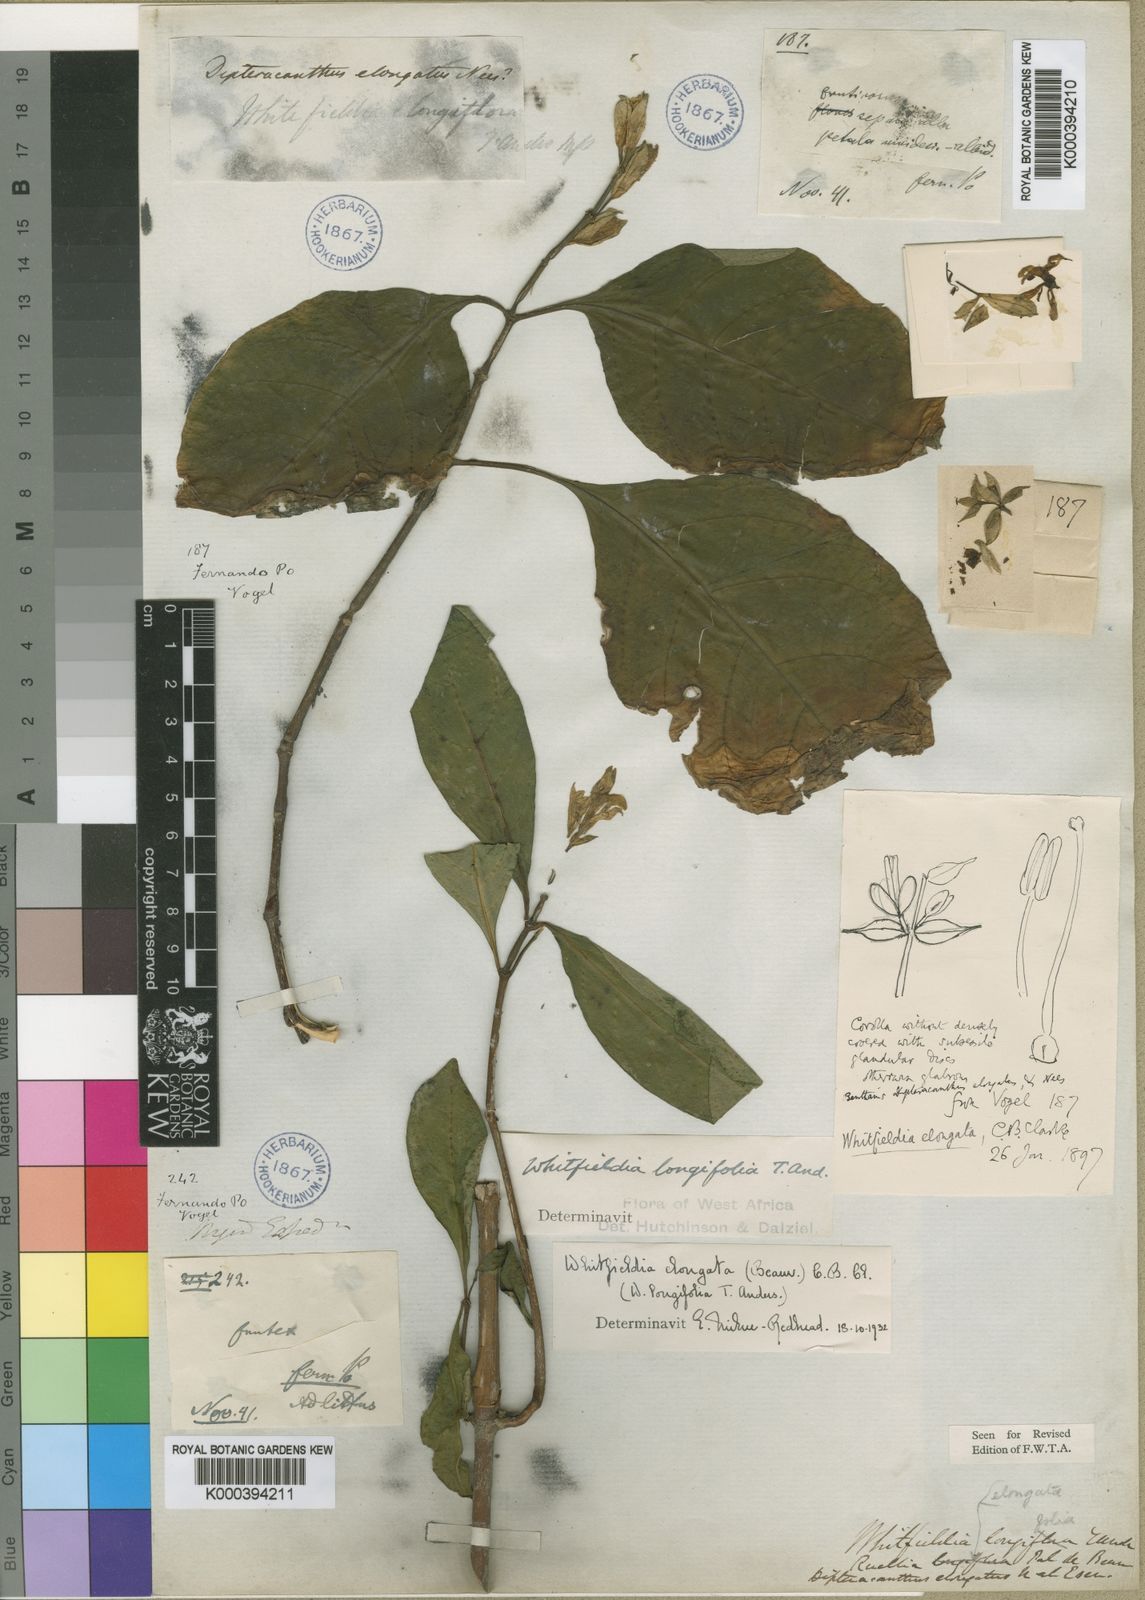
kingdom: Plantae
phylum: Tracheophyta
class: Magnoliopsida
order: Lamiales
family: Acanthaceae
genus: Whitfieldia
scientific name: Whitfieldia elongata
